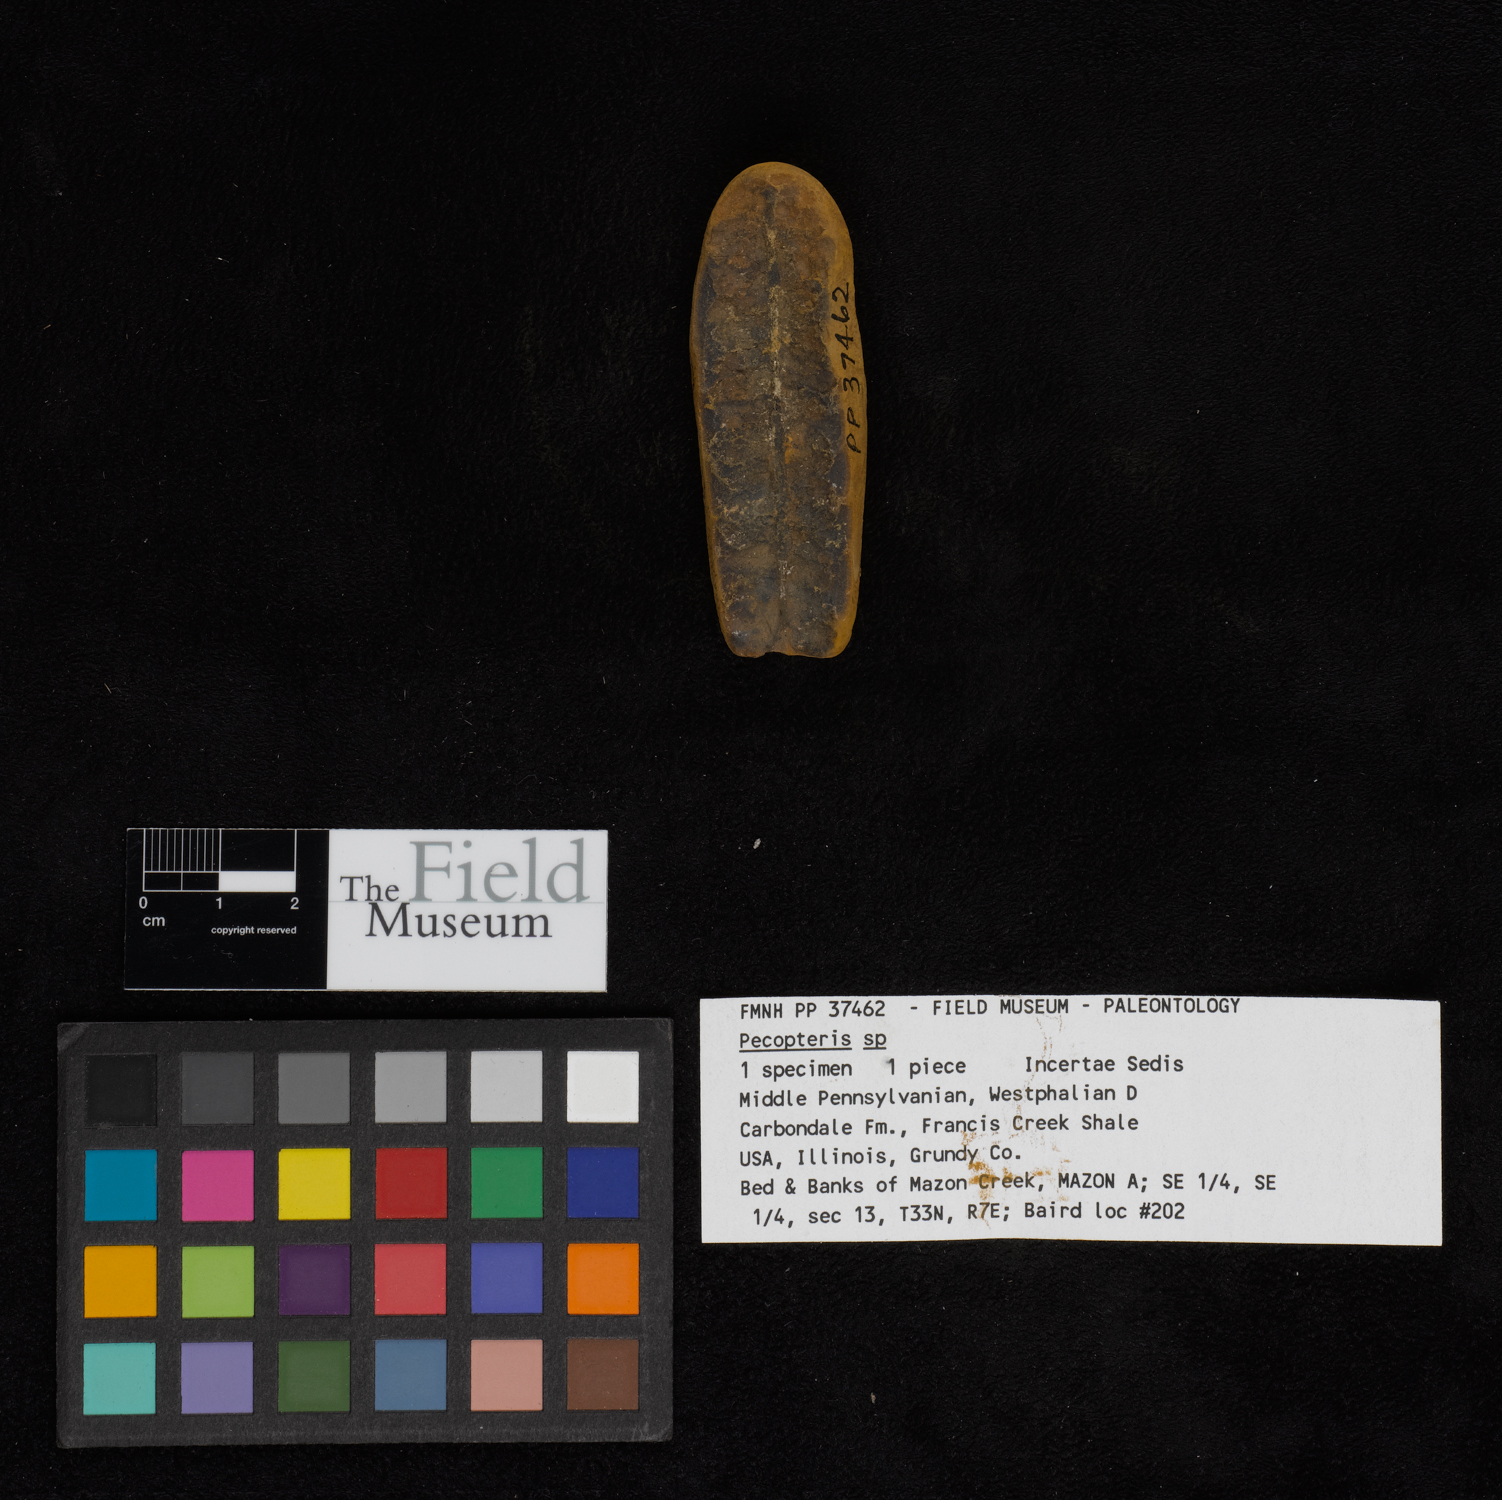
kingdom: Plantae
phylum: Tracheophyta
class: Polypodiopsida
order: Marattiales
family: Asterothecaceae
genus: Pecopteris
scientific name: Pecopteris
